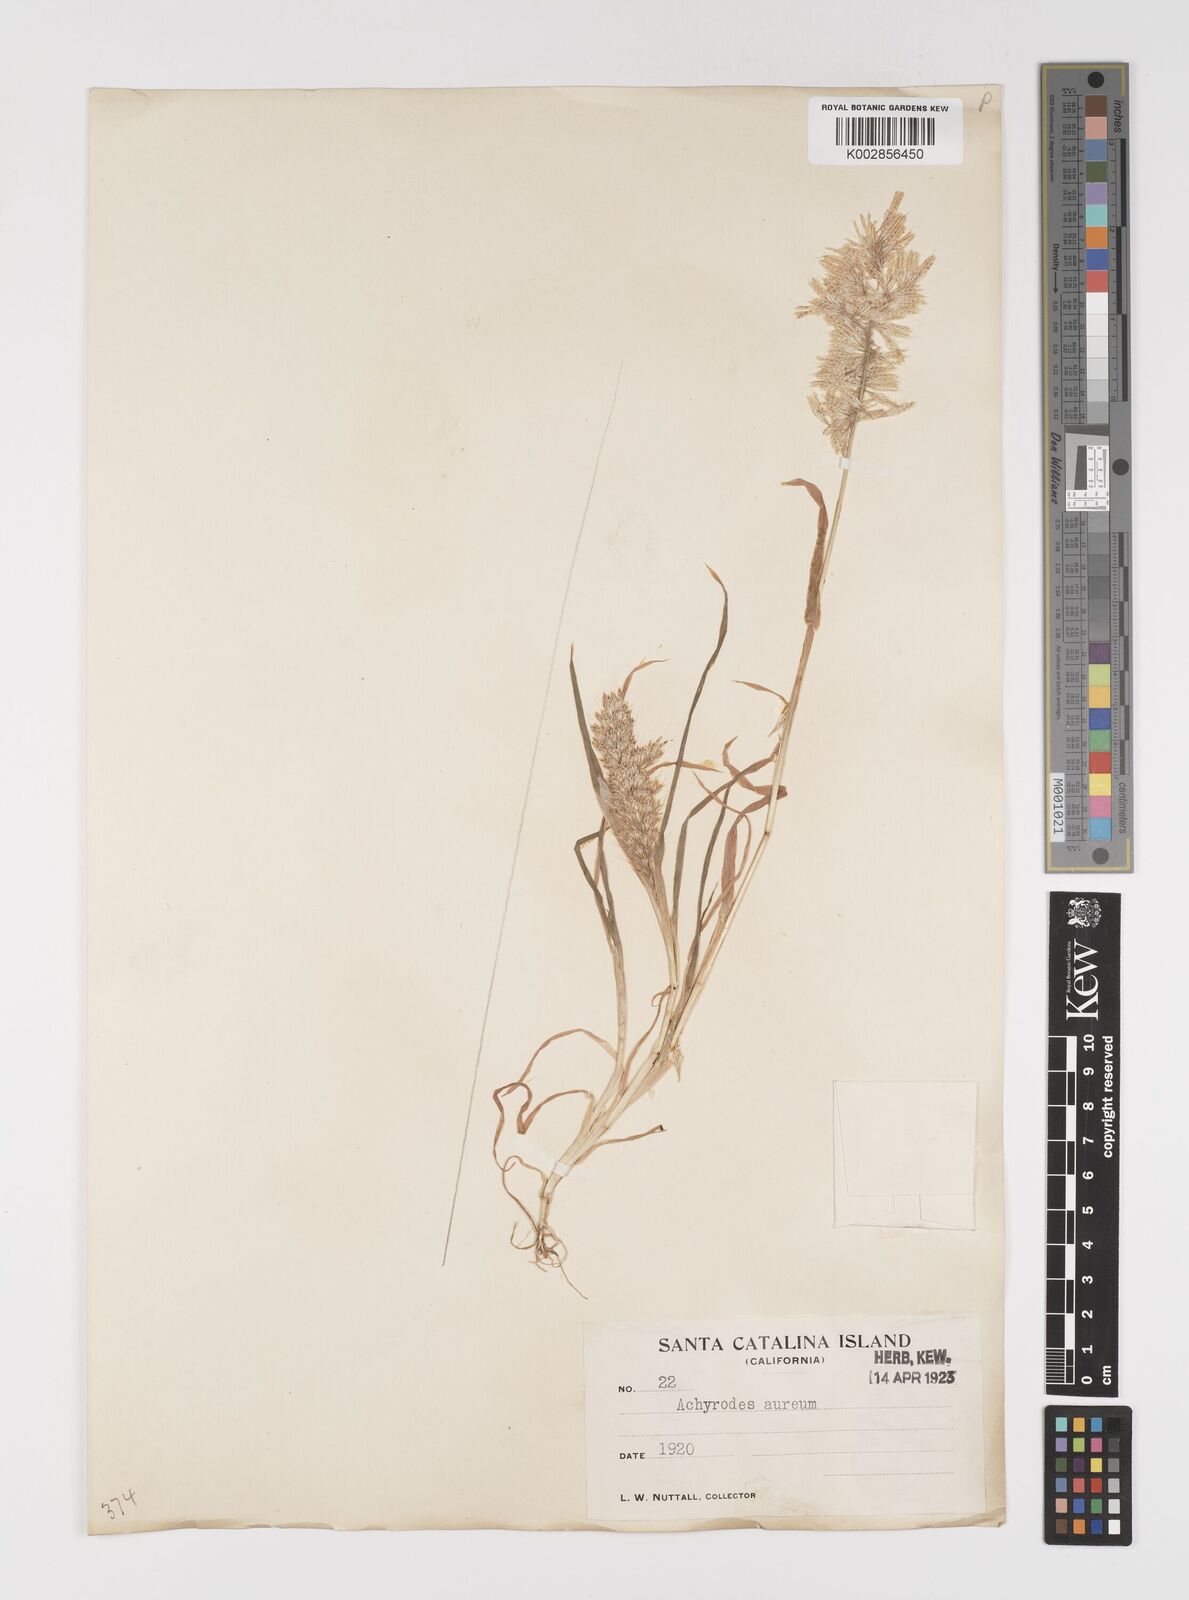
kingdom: Plantae
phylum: Tracheophyta
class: Liliopsida
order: Poales
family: Poaceae
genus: Lamarckia
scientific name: Lamarckia aurea
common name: Golden dog's-tail
